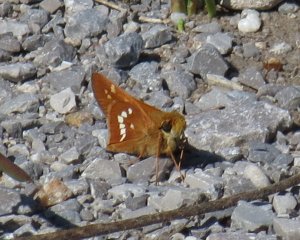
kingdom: Animalia
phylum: Arthropoda
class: Insecta
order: Lepidoptera
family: Hesperiidae
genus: Hesperia
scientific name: Hesperia leonardus
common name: Leonard's Skipper
